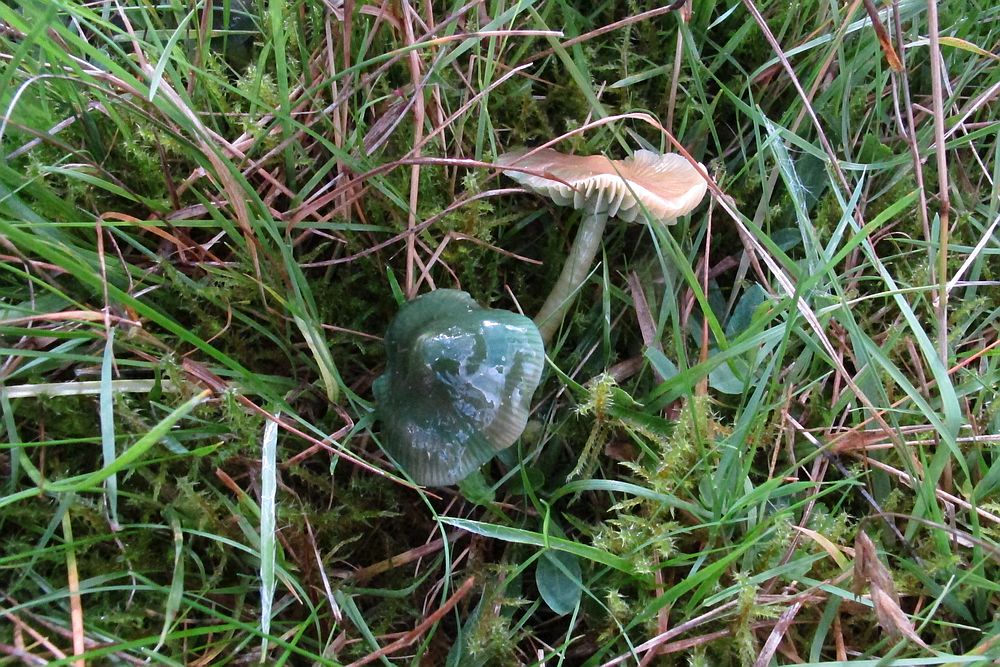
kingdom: Fungi
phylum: Basidiomycota
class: Agaricomycetes
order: Agaricales
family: Hygrophoraceae
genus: Gliophorus
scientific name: Gliophorus psittacinus
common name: papegøje-vokshat
